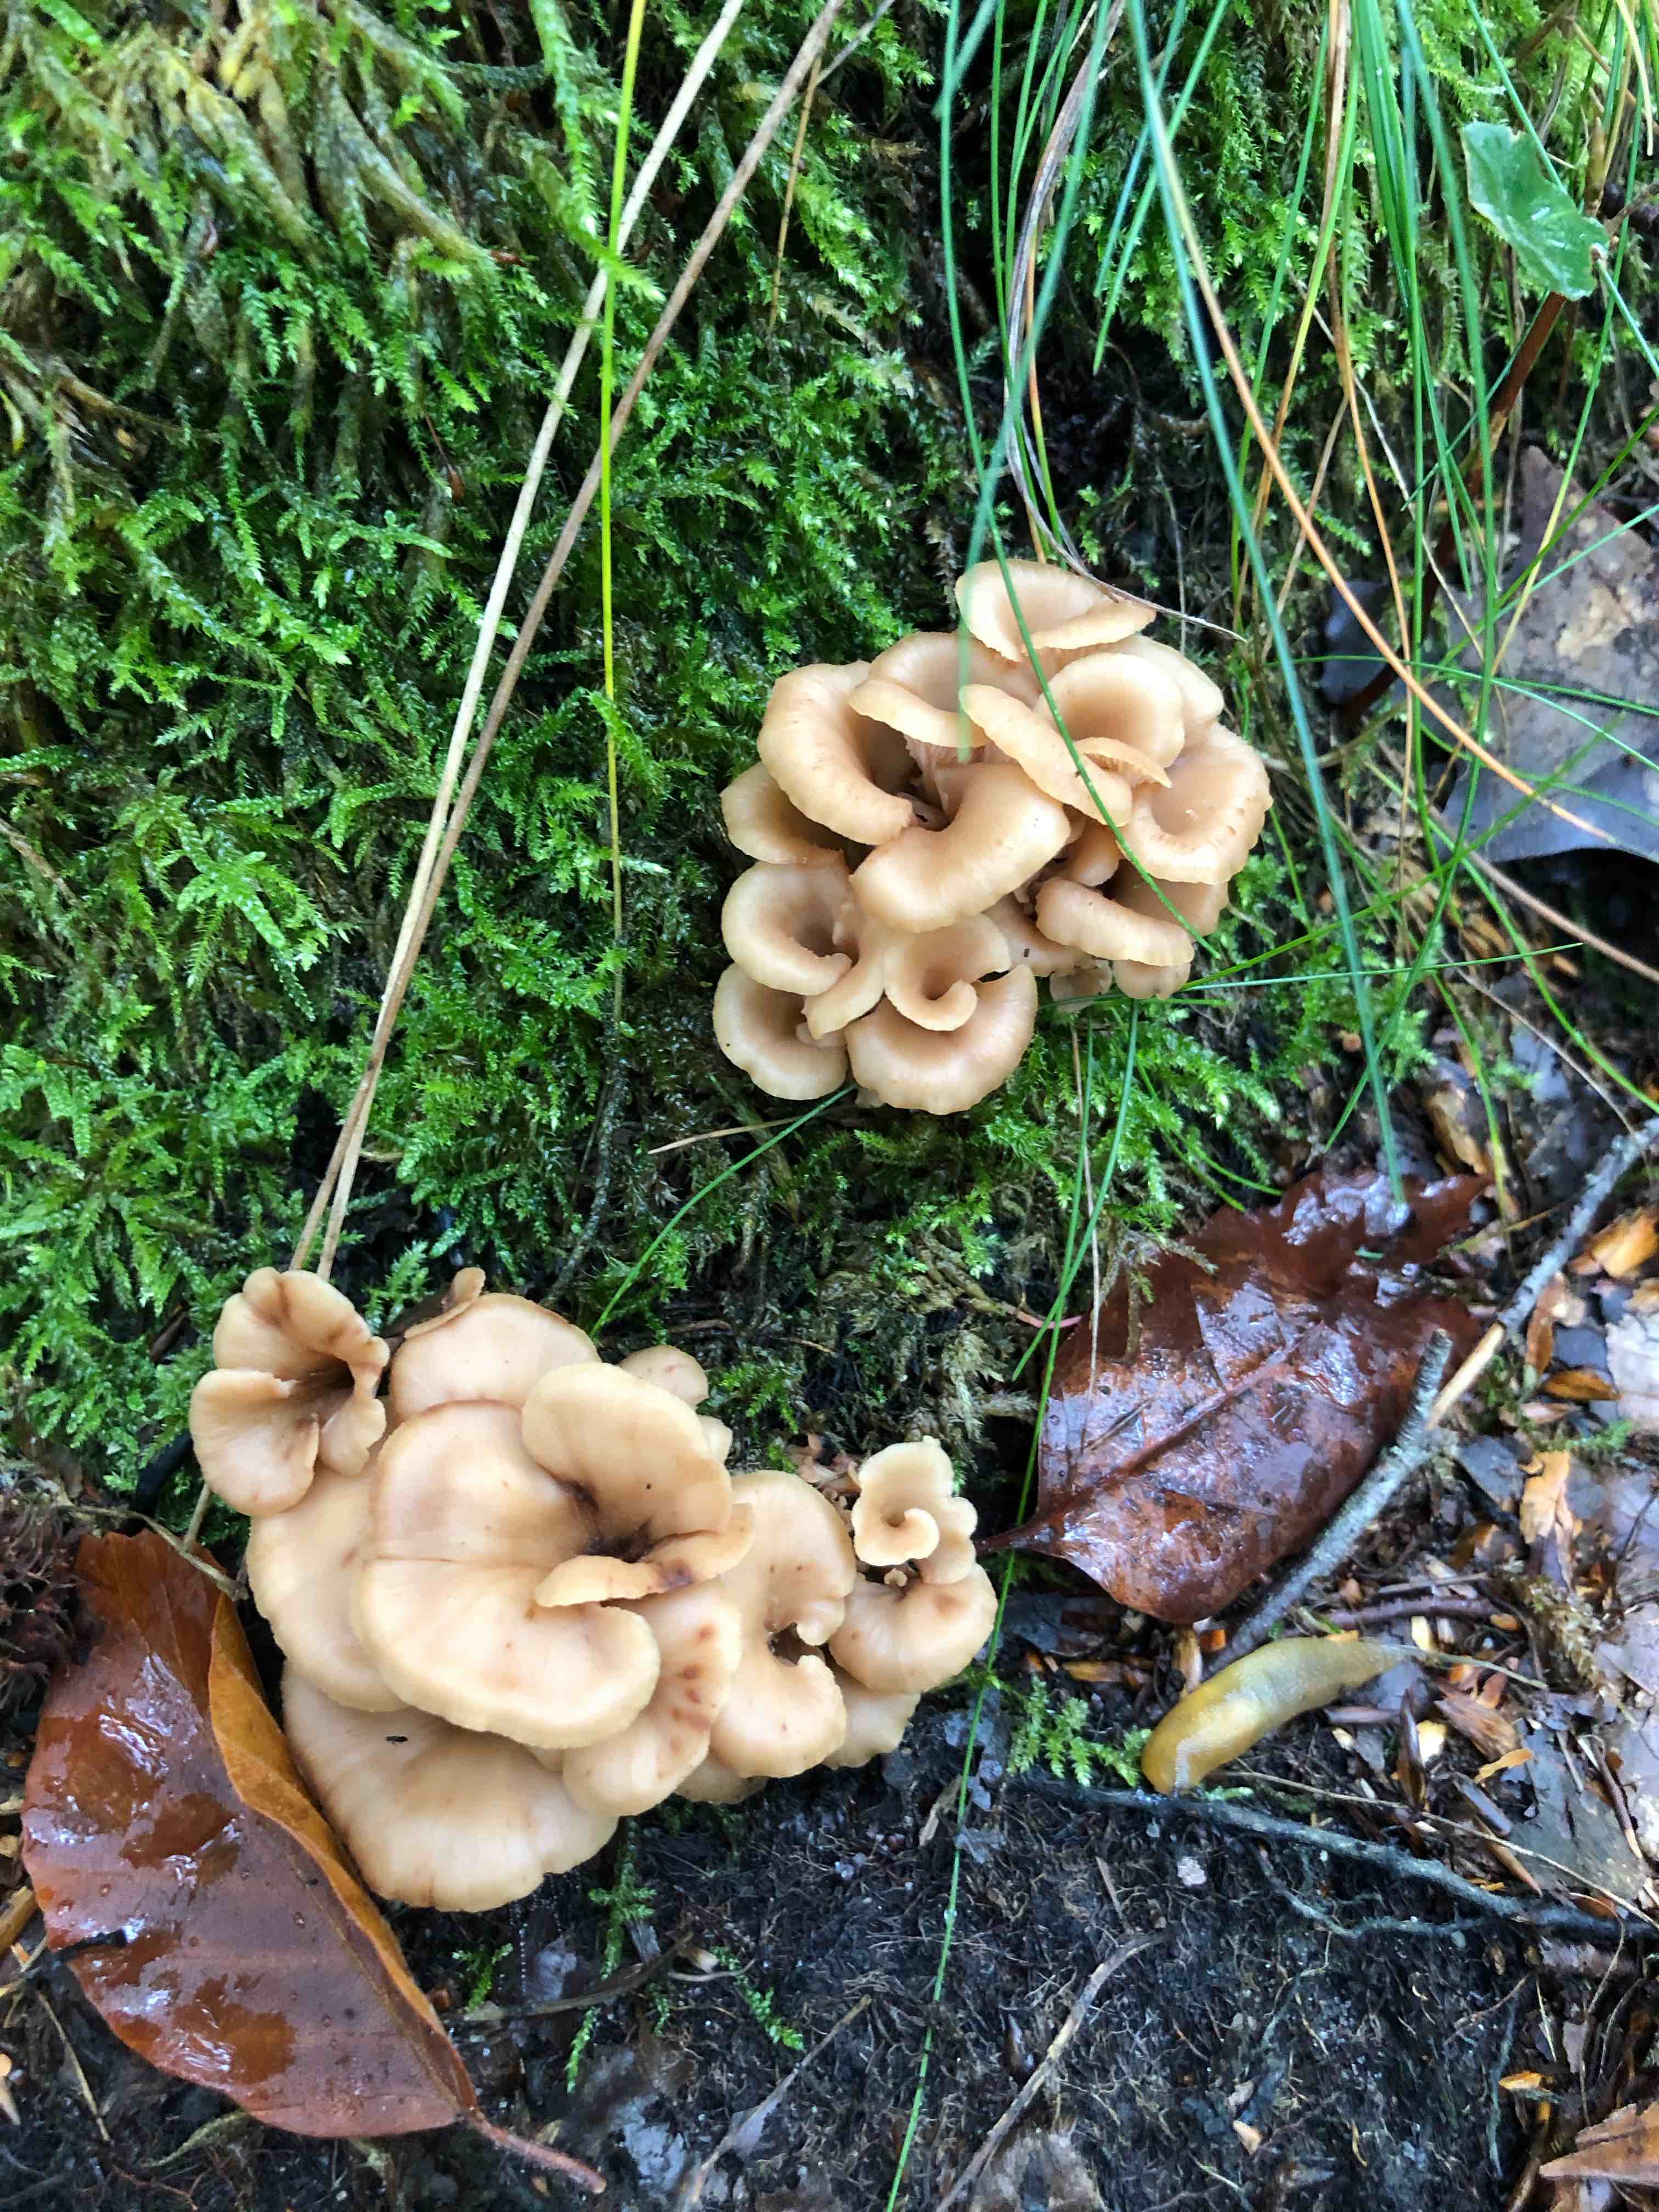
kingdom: Fungi
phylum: Basidiomycota
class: Agaricomycetes
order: Russulales
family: Auriscalpiaceae
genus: Lentinellus
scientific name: Lentinellus cochleatus
